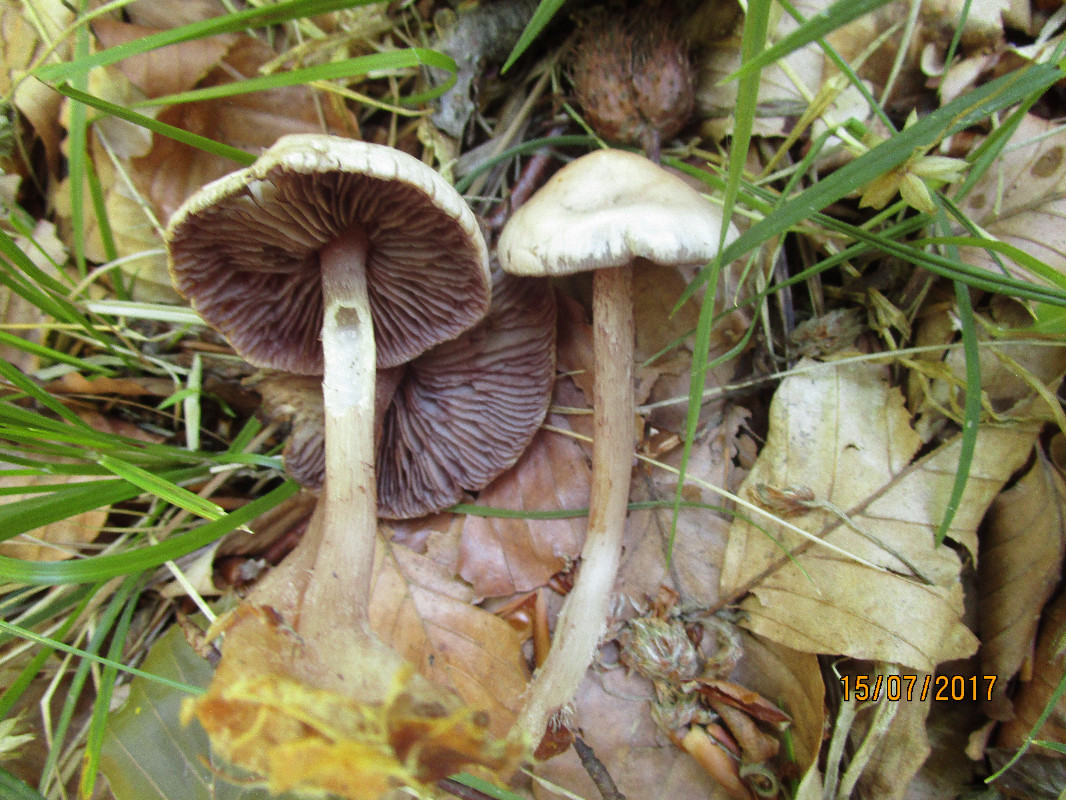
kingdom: Fungi
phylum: Basidiomycota
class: Agaricomycetes
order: Agaricales
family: Mycenaceae
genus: Mycena
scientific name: Mycena pelianthina
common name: mørkbladet huesvamp
